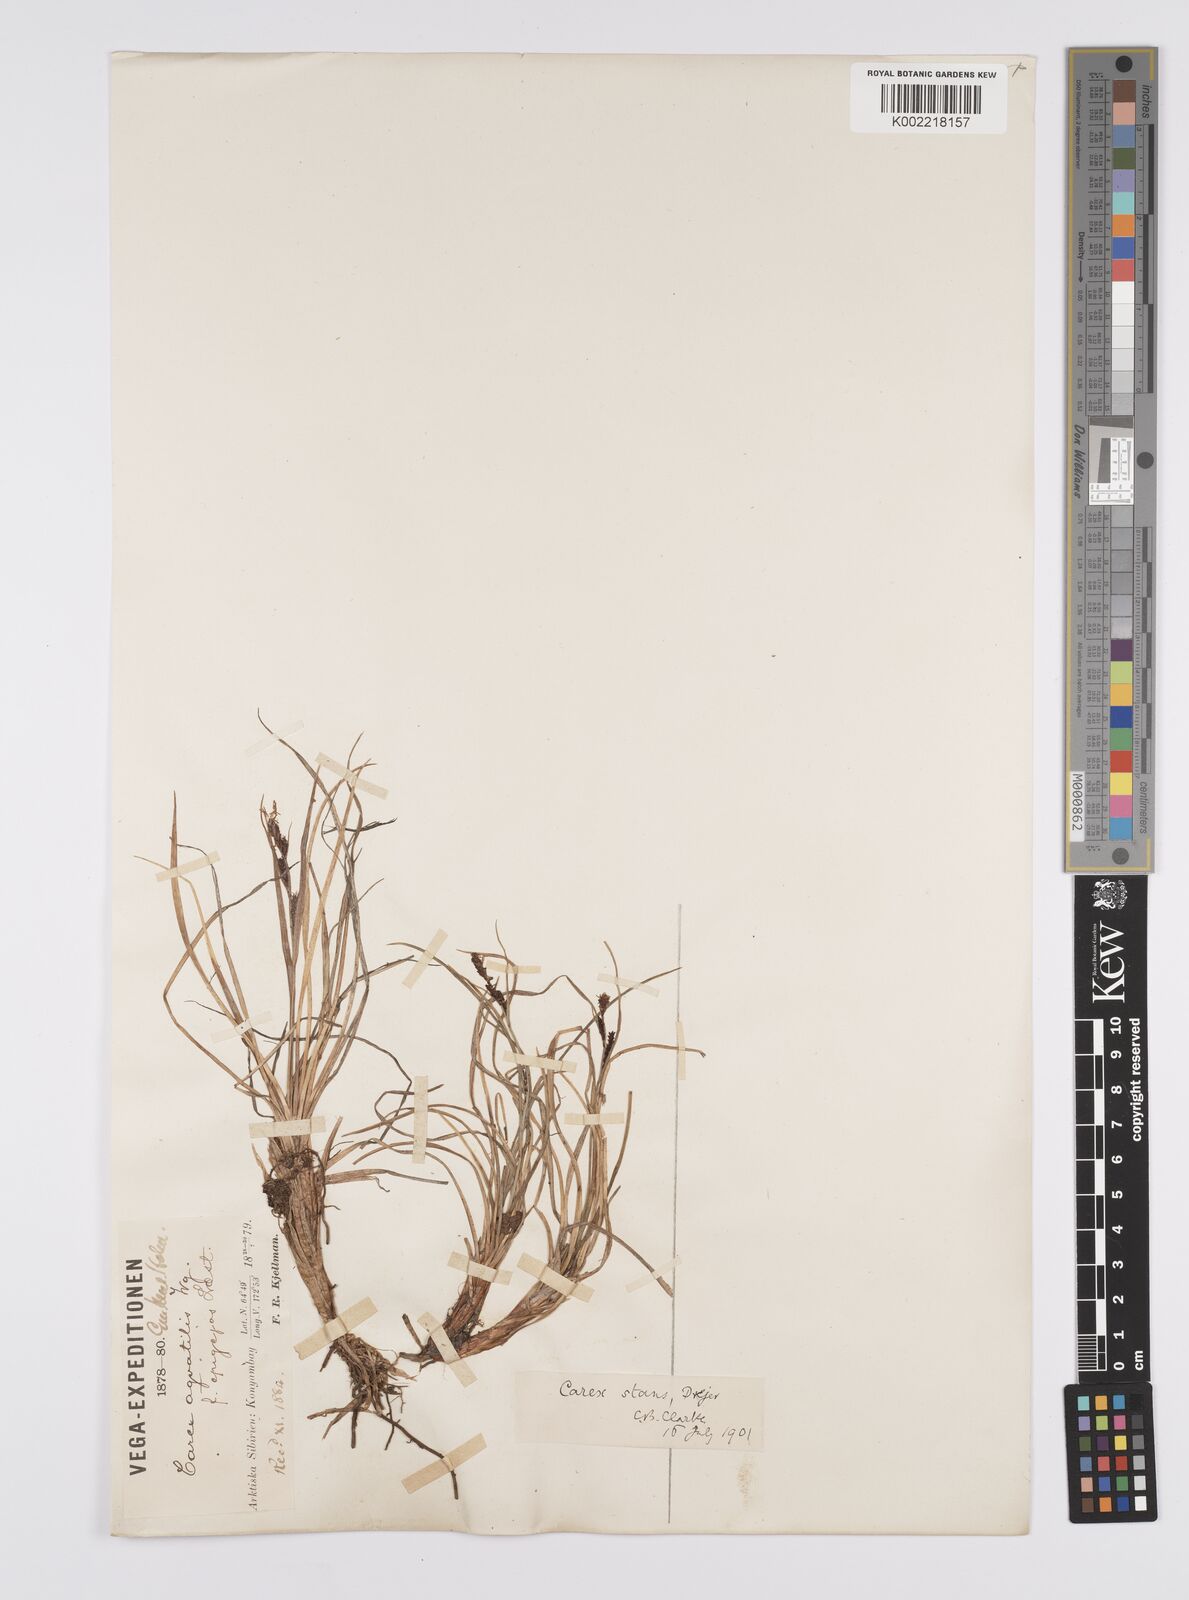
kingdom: Plantae
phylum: Tracheophyta
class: Liliopsida
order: Poales
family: Cyperaceae
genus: Carex
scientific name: Carex microsaccus
